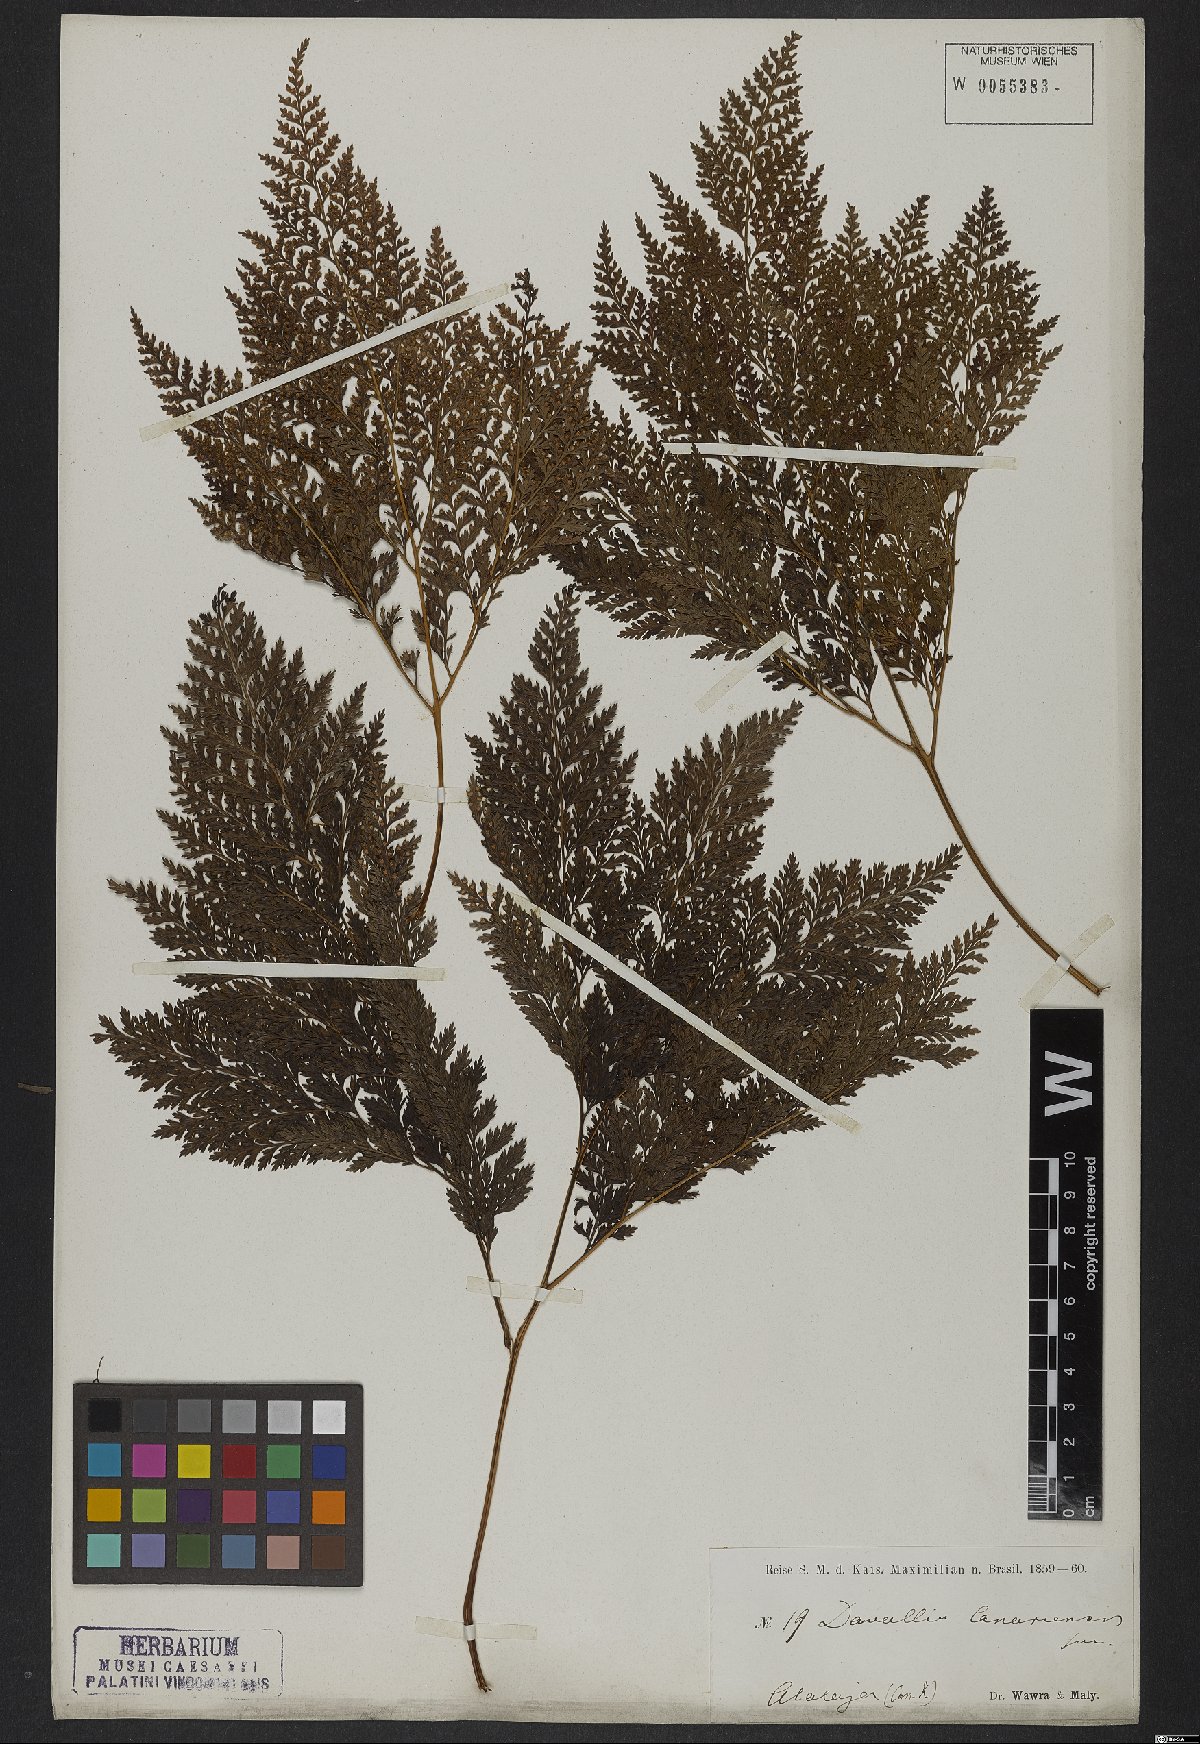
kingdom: Plantae
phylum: Tracheophyta
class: Polypodiopsida
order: Polypodiales
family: Davalliaceae
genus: Davallia
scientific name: Davallia canariensis
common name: Hare's-foot fern
